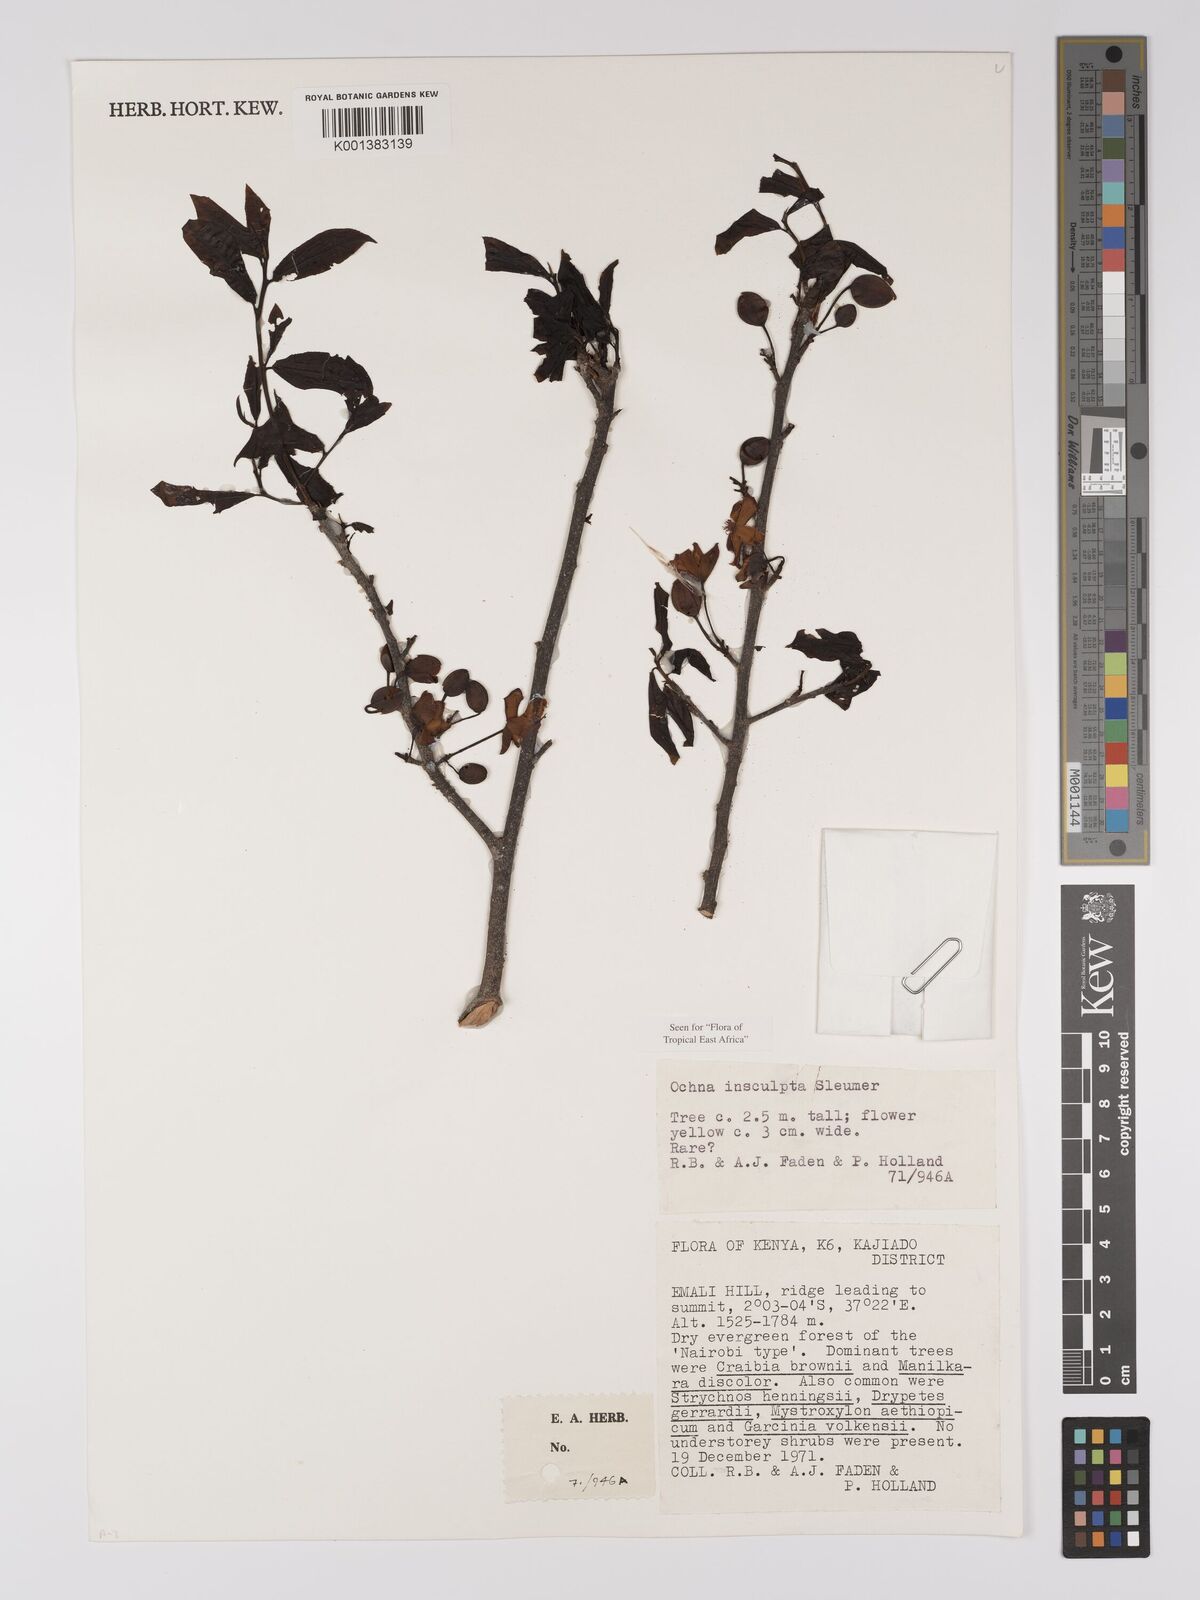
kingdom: Plantae
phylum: Tracheophyta
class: Magnoliopsida
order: Malpighiales
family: Ochnaceae
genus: Ochna
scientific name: Ochna insculpta
